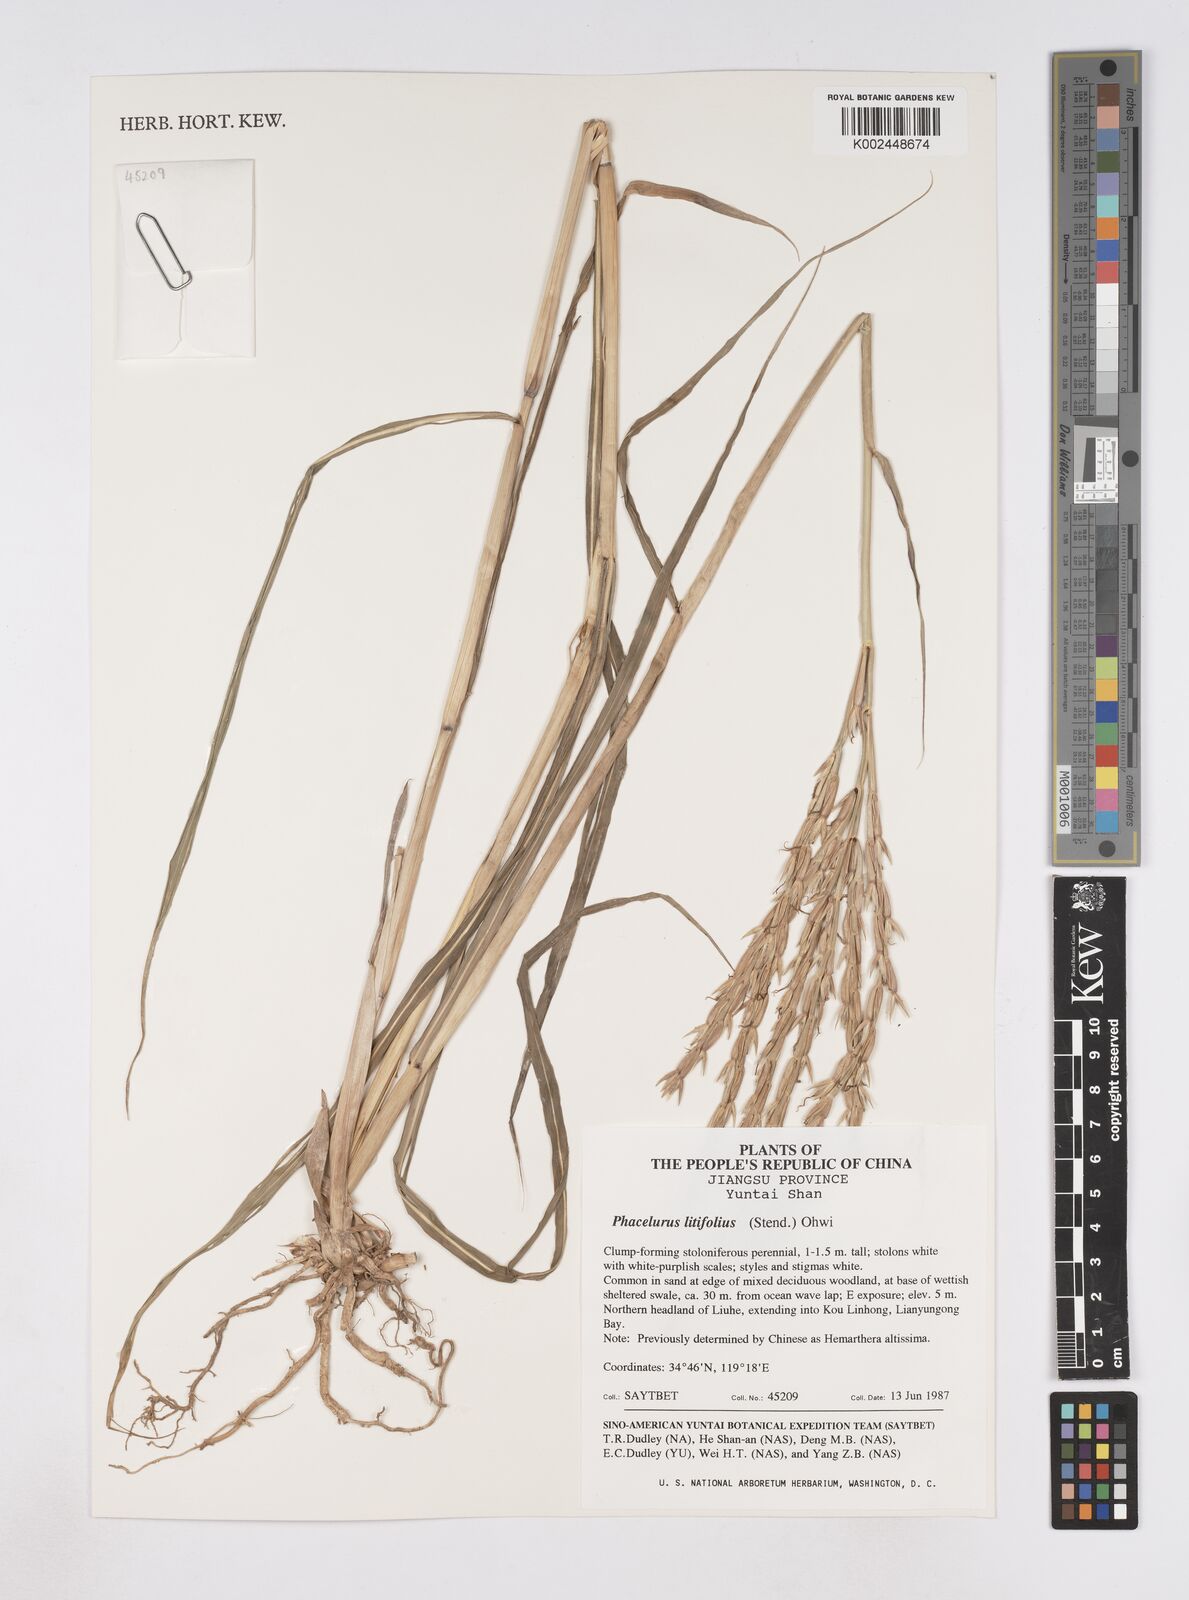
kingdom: Plantae
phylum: Tracheophyta
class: Liliopsida
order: Poales
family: Poaceae
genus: Phacelurus
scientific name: Phacelurus latifolius
